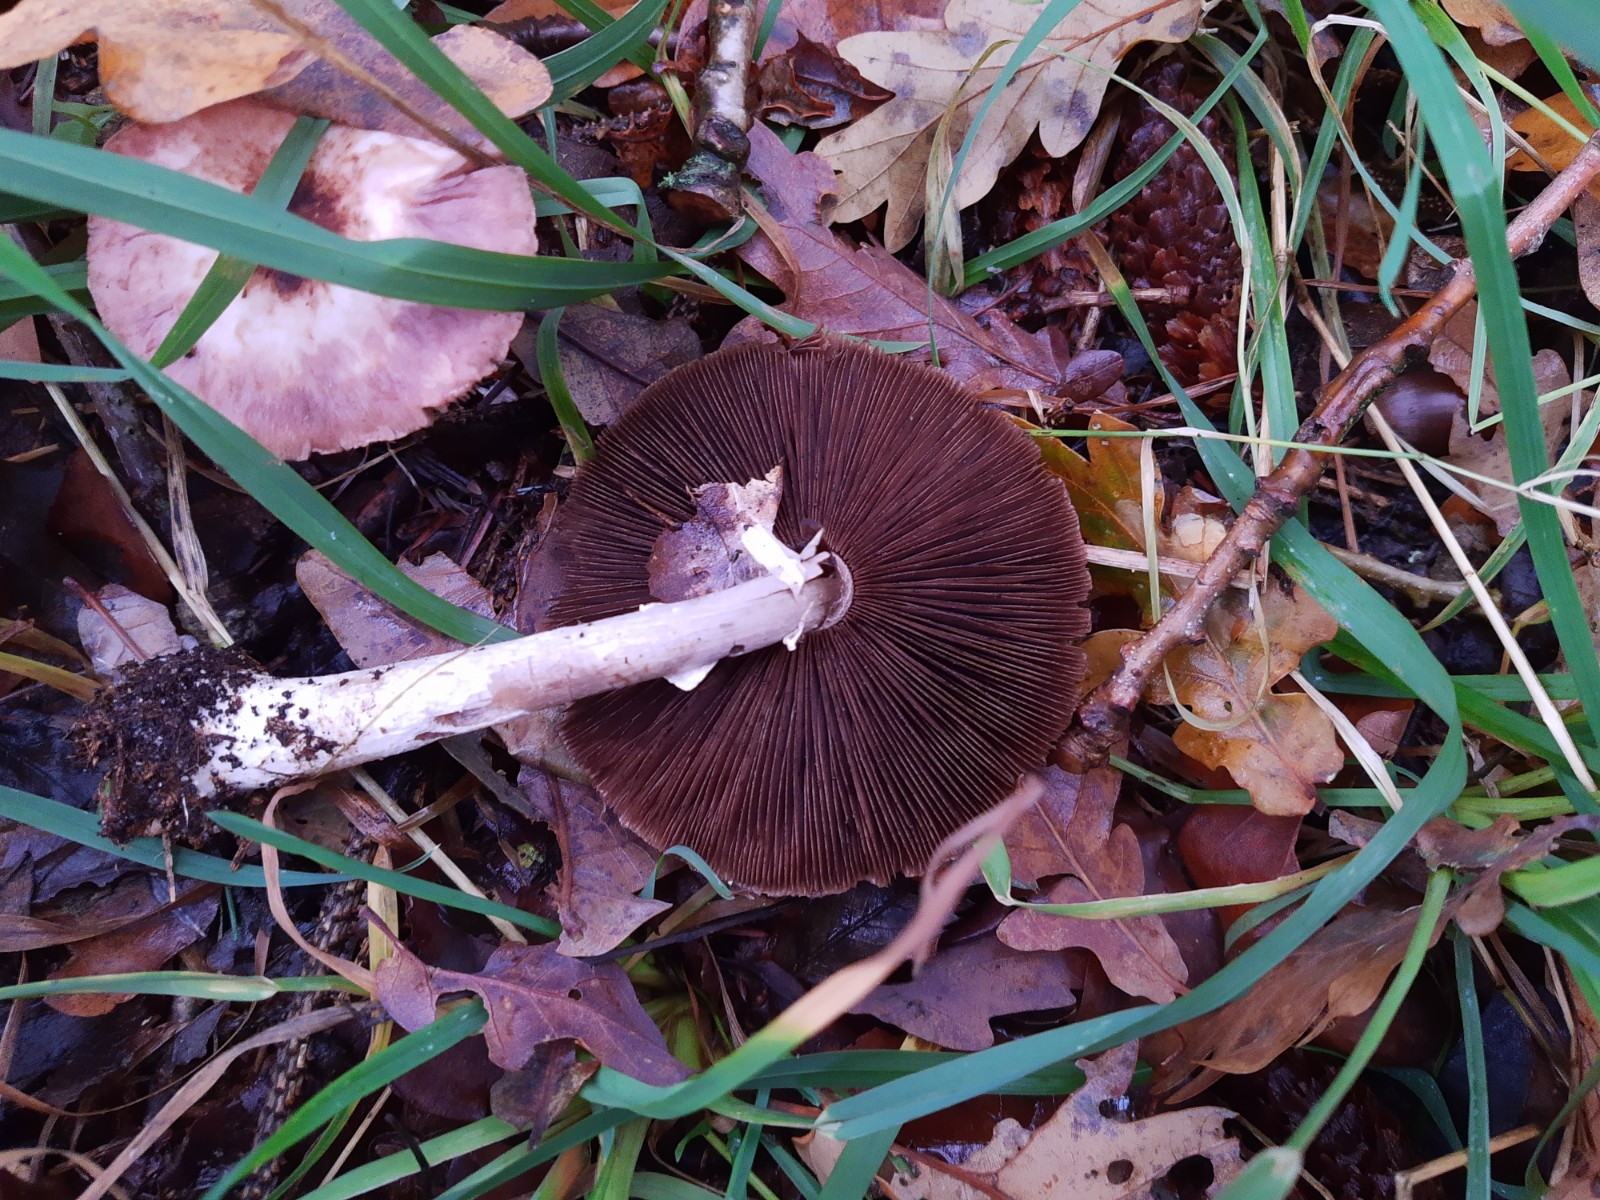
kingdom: Fungi
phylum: Basidiomycota
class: Agaricomycetes
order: Agaricales
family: Agaricaceae
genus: Agaricus
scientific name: Agaricus
